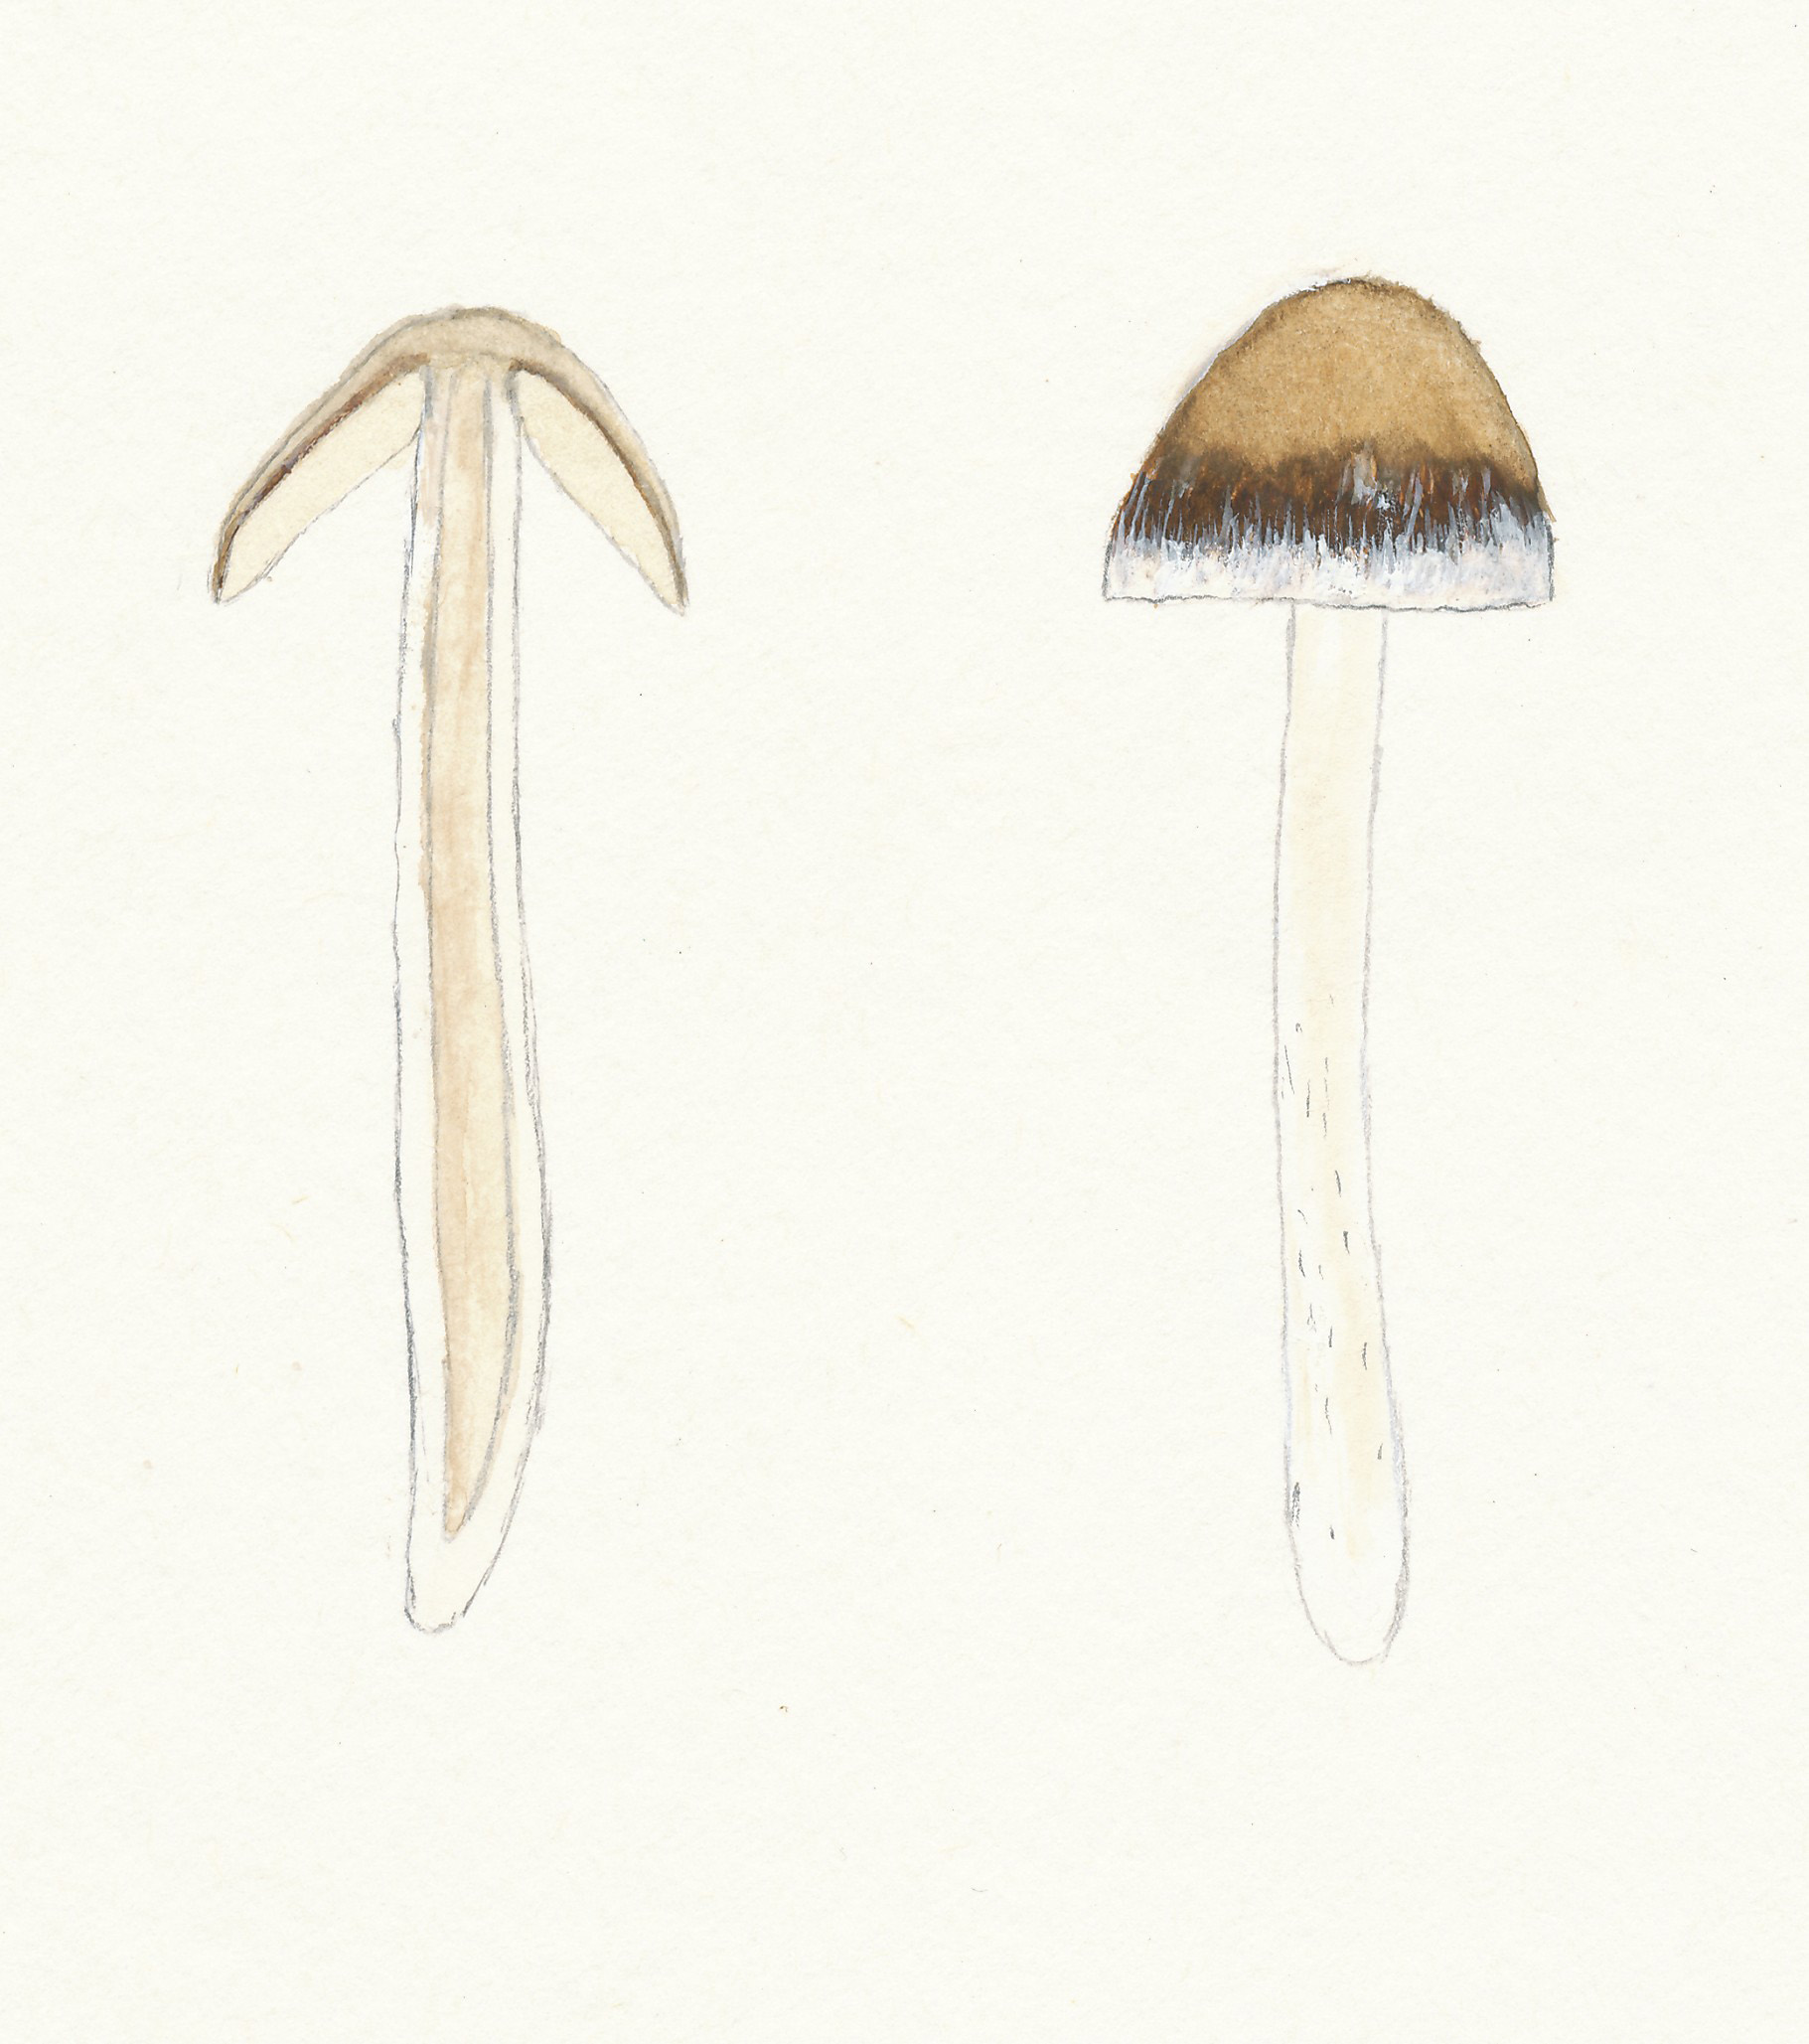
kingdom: Fungi
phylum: Basidiomycota
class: Agaricomycetes
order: Agaricales
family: Psathyrellaceae
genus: Psathyrella
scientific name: Psathyrella spadiceogrisea
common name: gråbrun mørkhat
